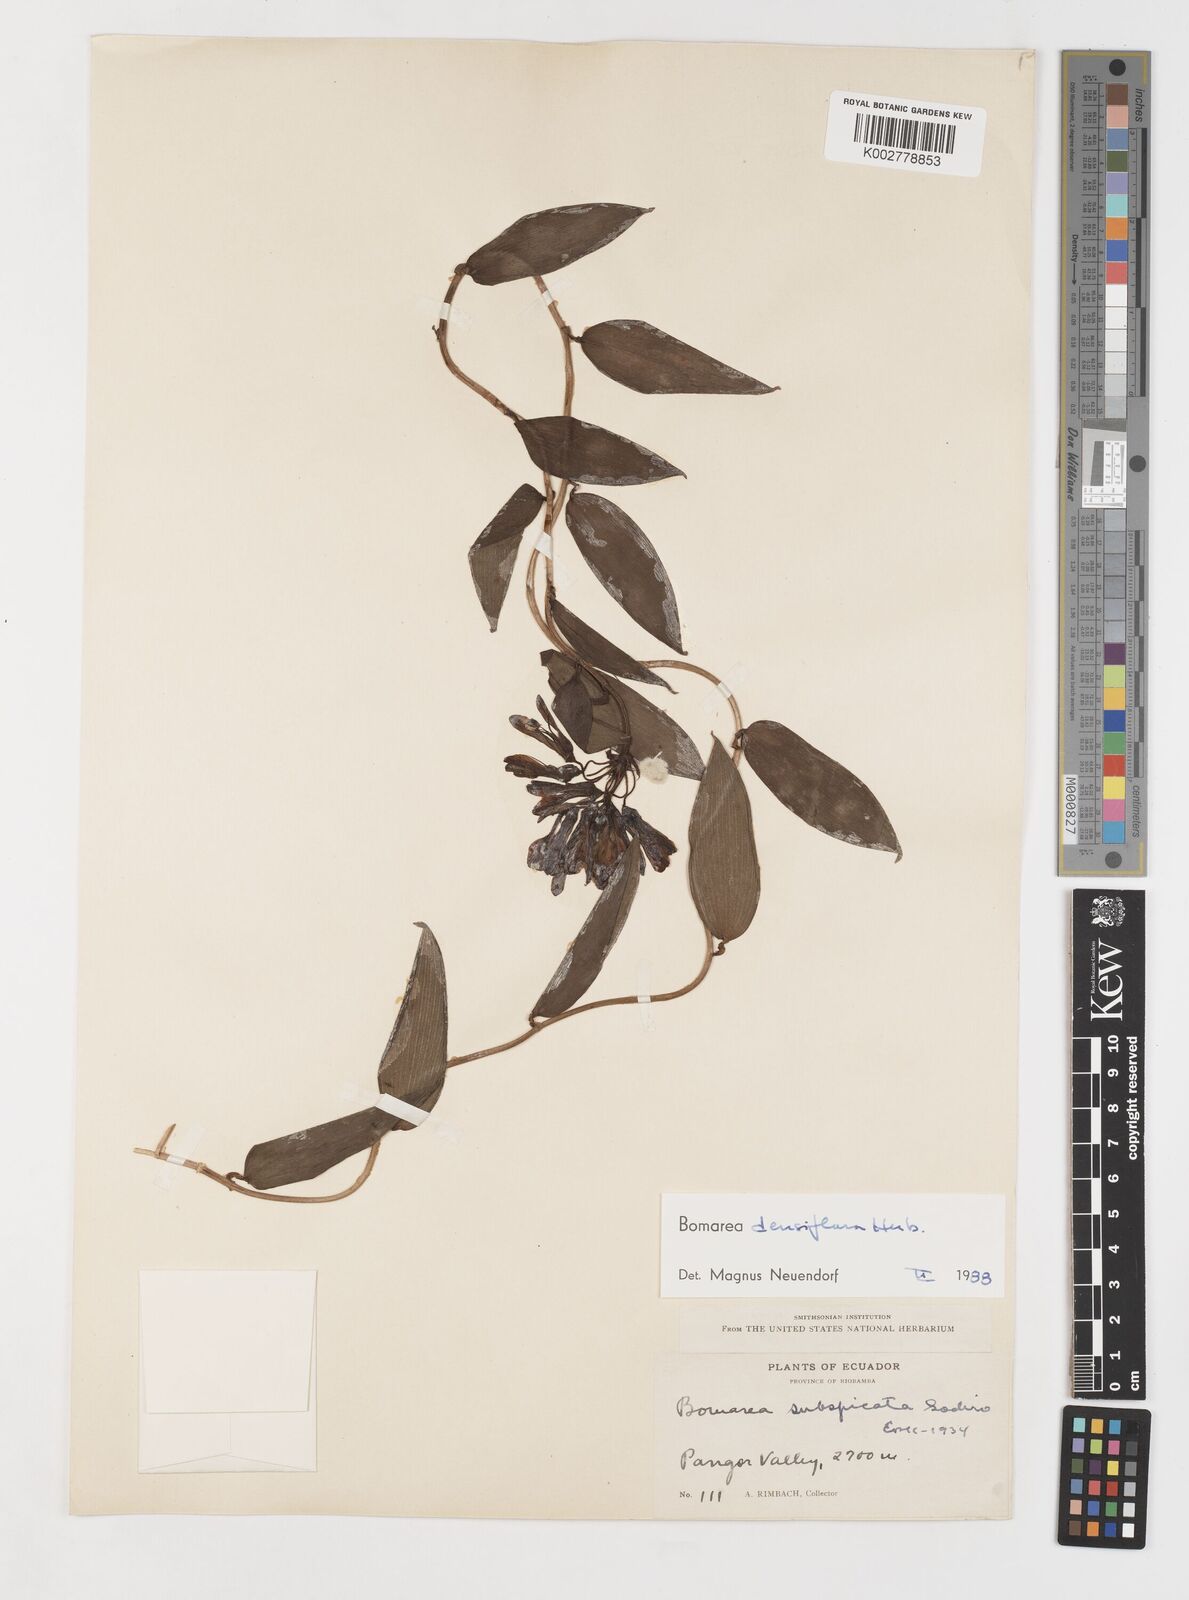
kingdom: Plantae
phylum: Tracheophyta
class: Liliopsida
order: Liliales
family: Alstroemeriaceae
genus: Bomarea
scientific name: Bomarea densiflora
